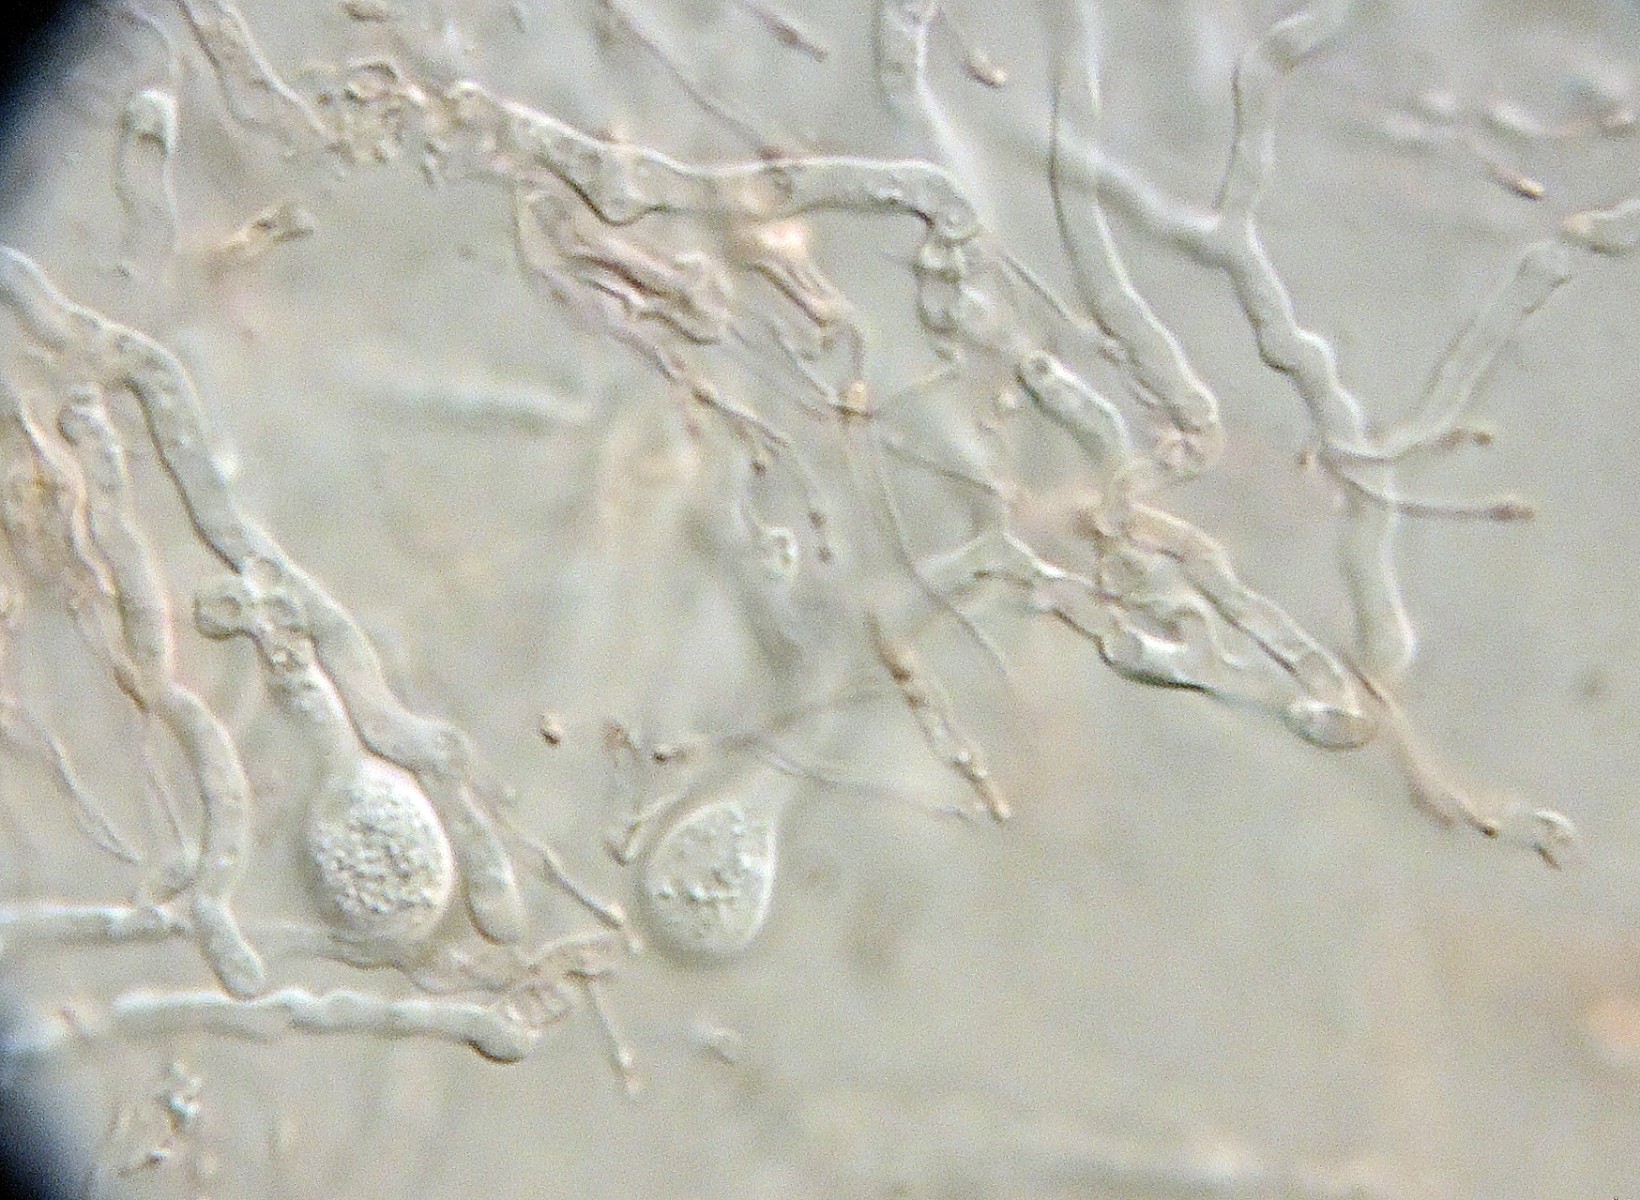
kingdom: Fungi
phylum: Basidiomycota
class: Agaricomycetes
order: Auriculariales
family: Hyaloriaceae
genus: Myxarium
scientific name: Myxarium minutissimum
